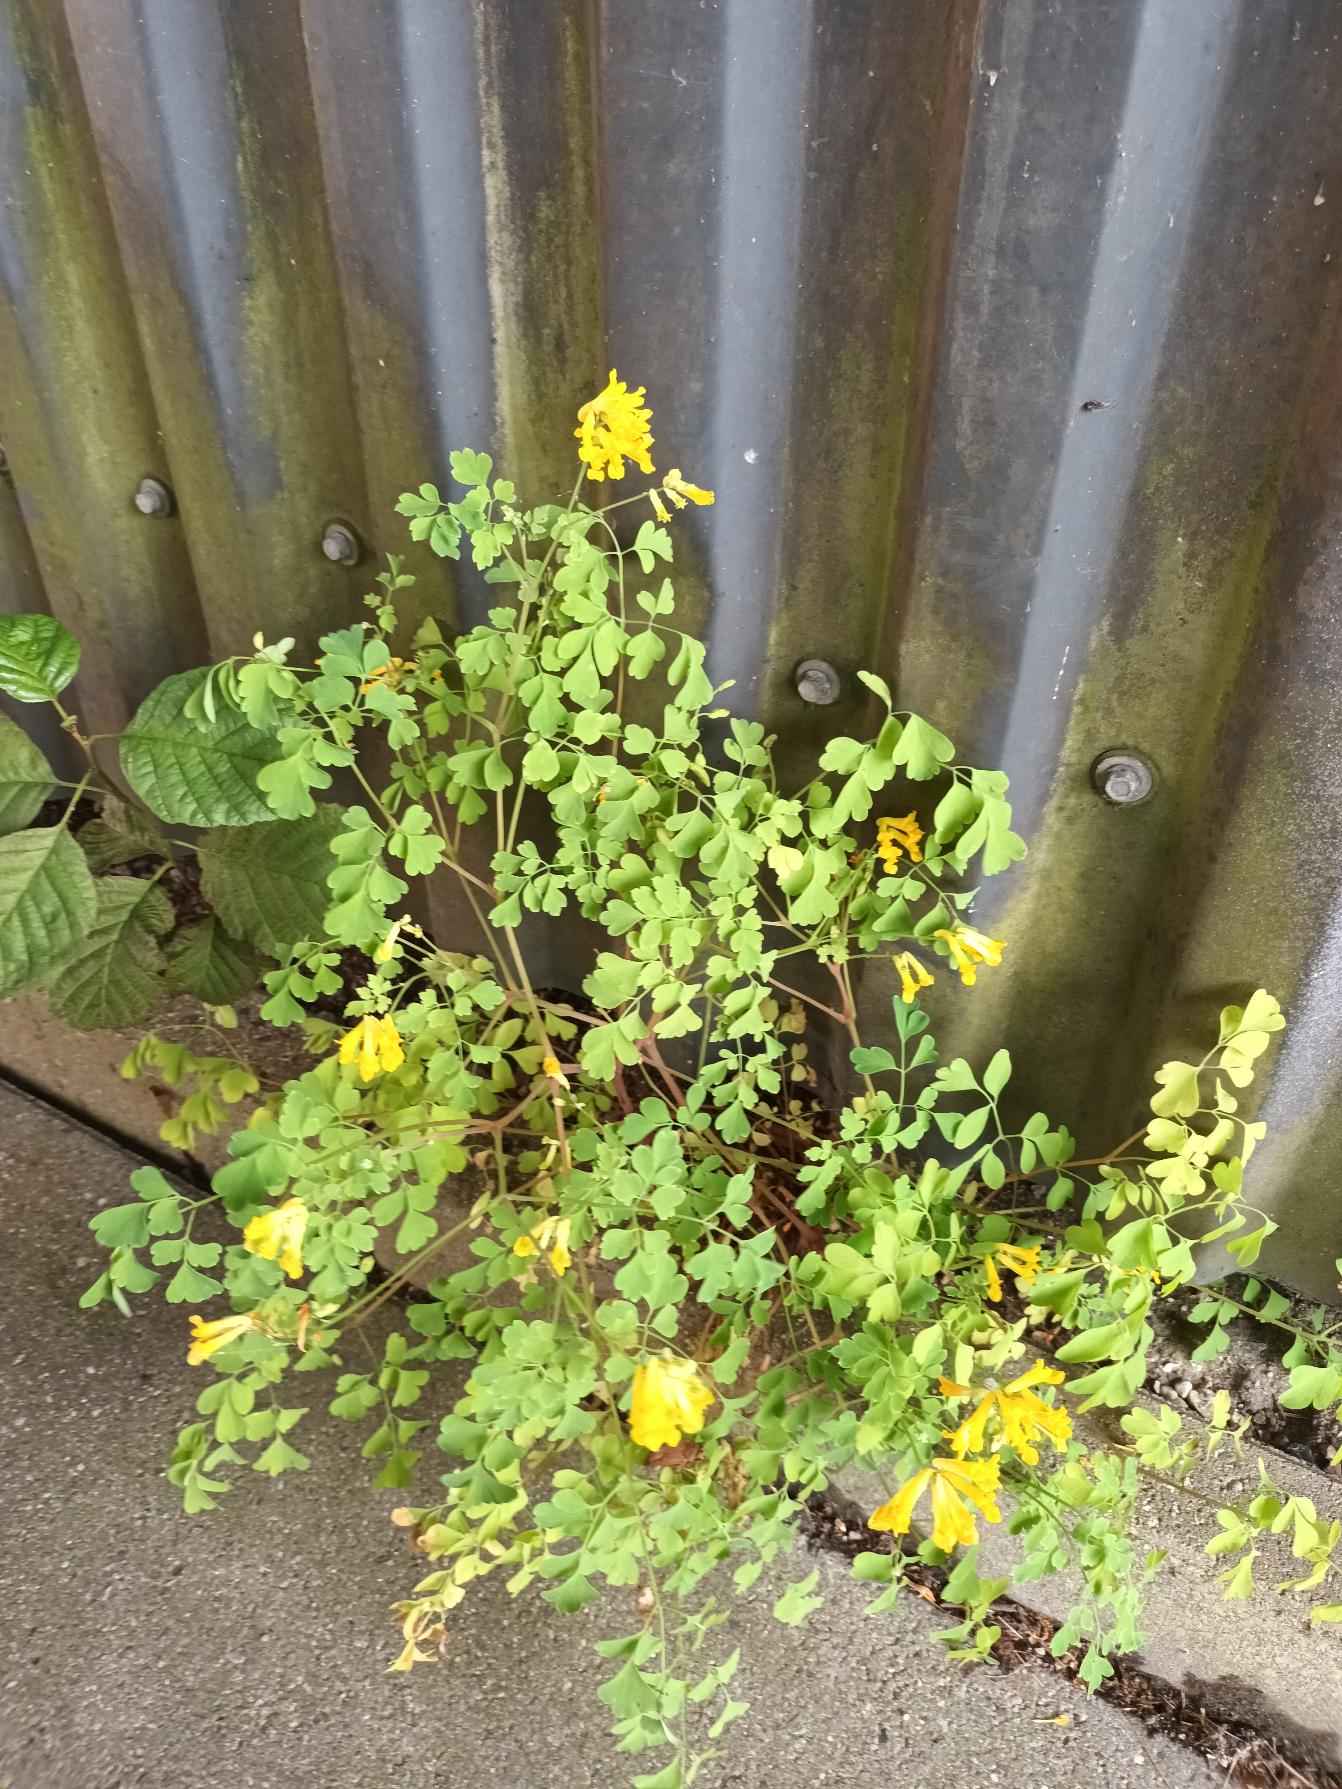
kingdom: Plantae
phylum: Tracheophyta
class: Magnoliopsida
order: Ranunculales
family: Papaveraceae
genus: Pseudofumaria
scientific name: Pseudofumaria lutea
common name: Gul lærkespore
